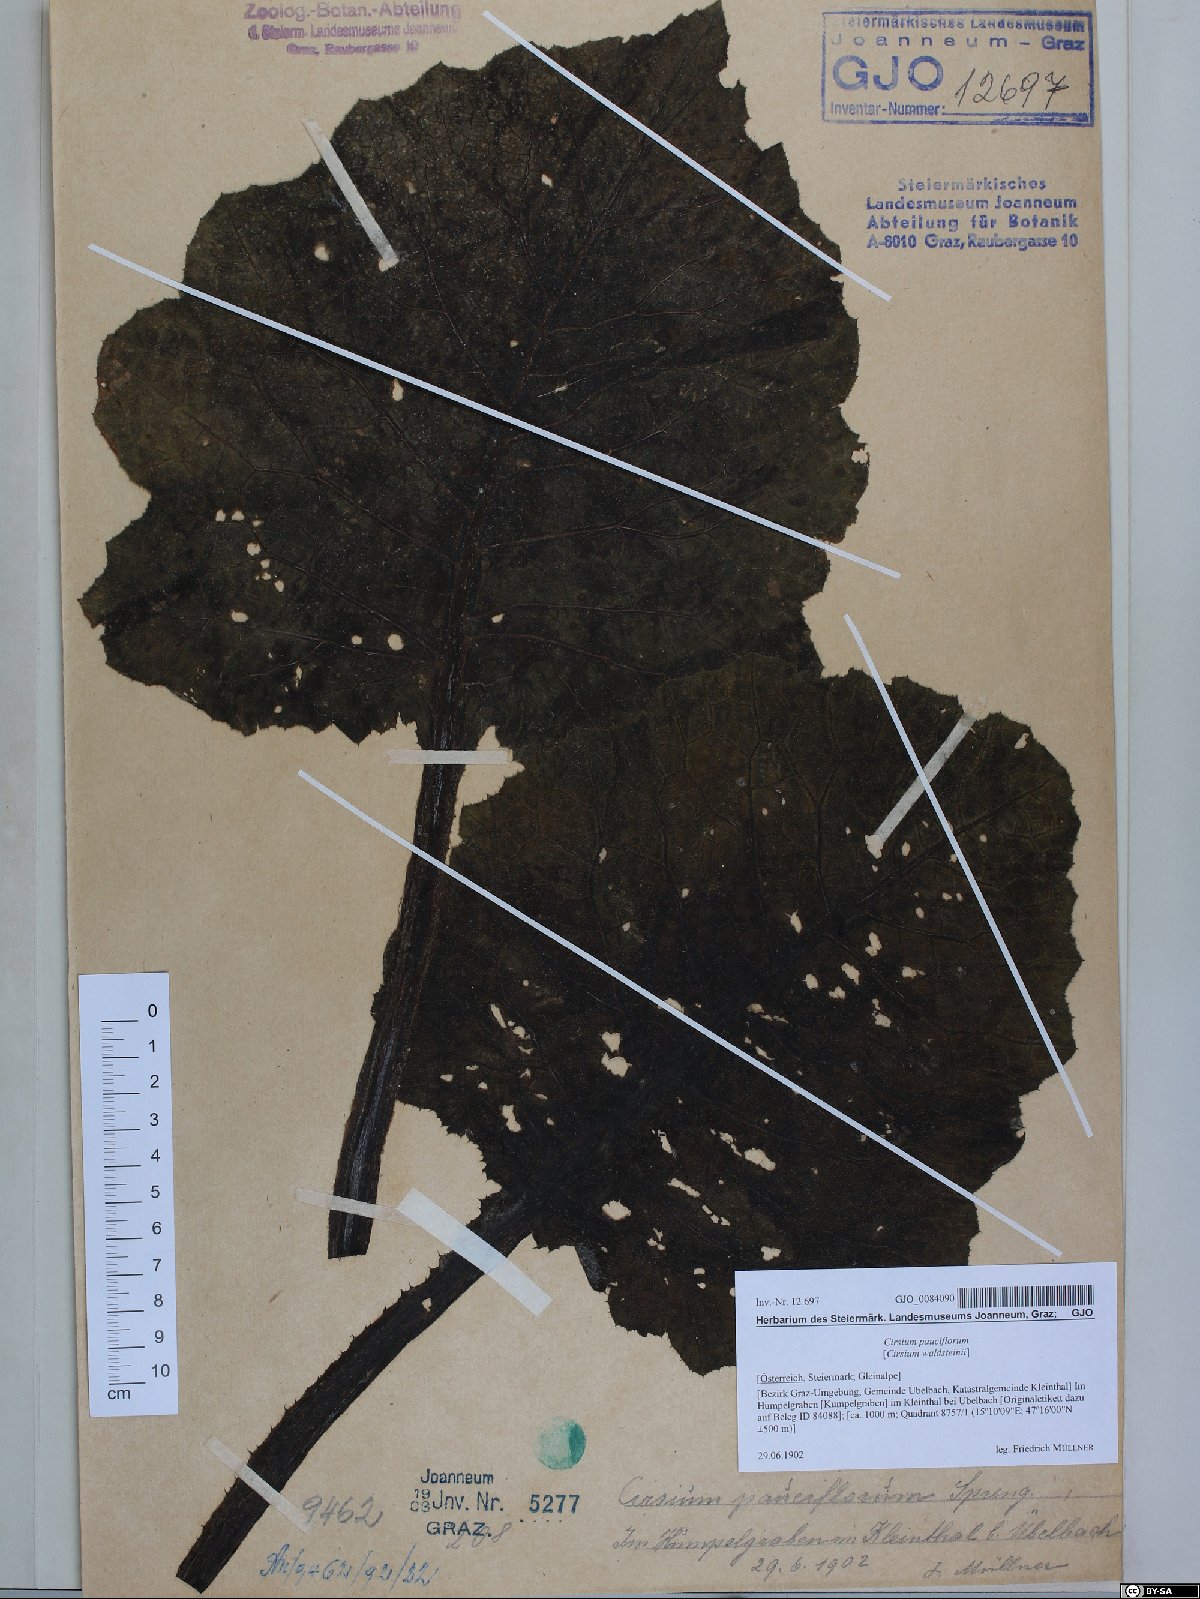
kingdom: Plantae
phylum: Tracheophyta
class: Magnoliopsida
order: Asterales
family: Asteraceae
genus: Cirsium
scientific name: Cirsium greimleri
